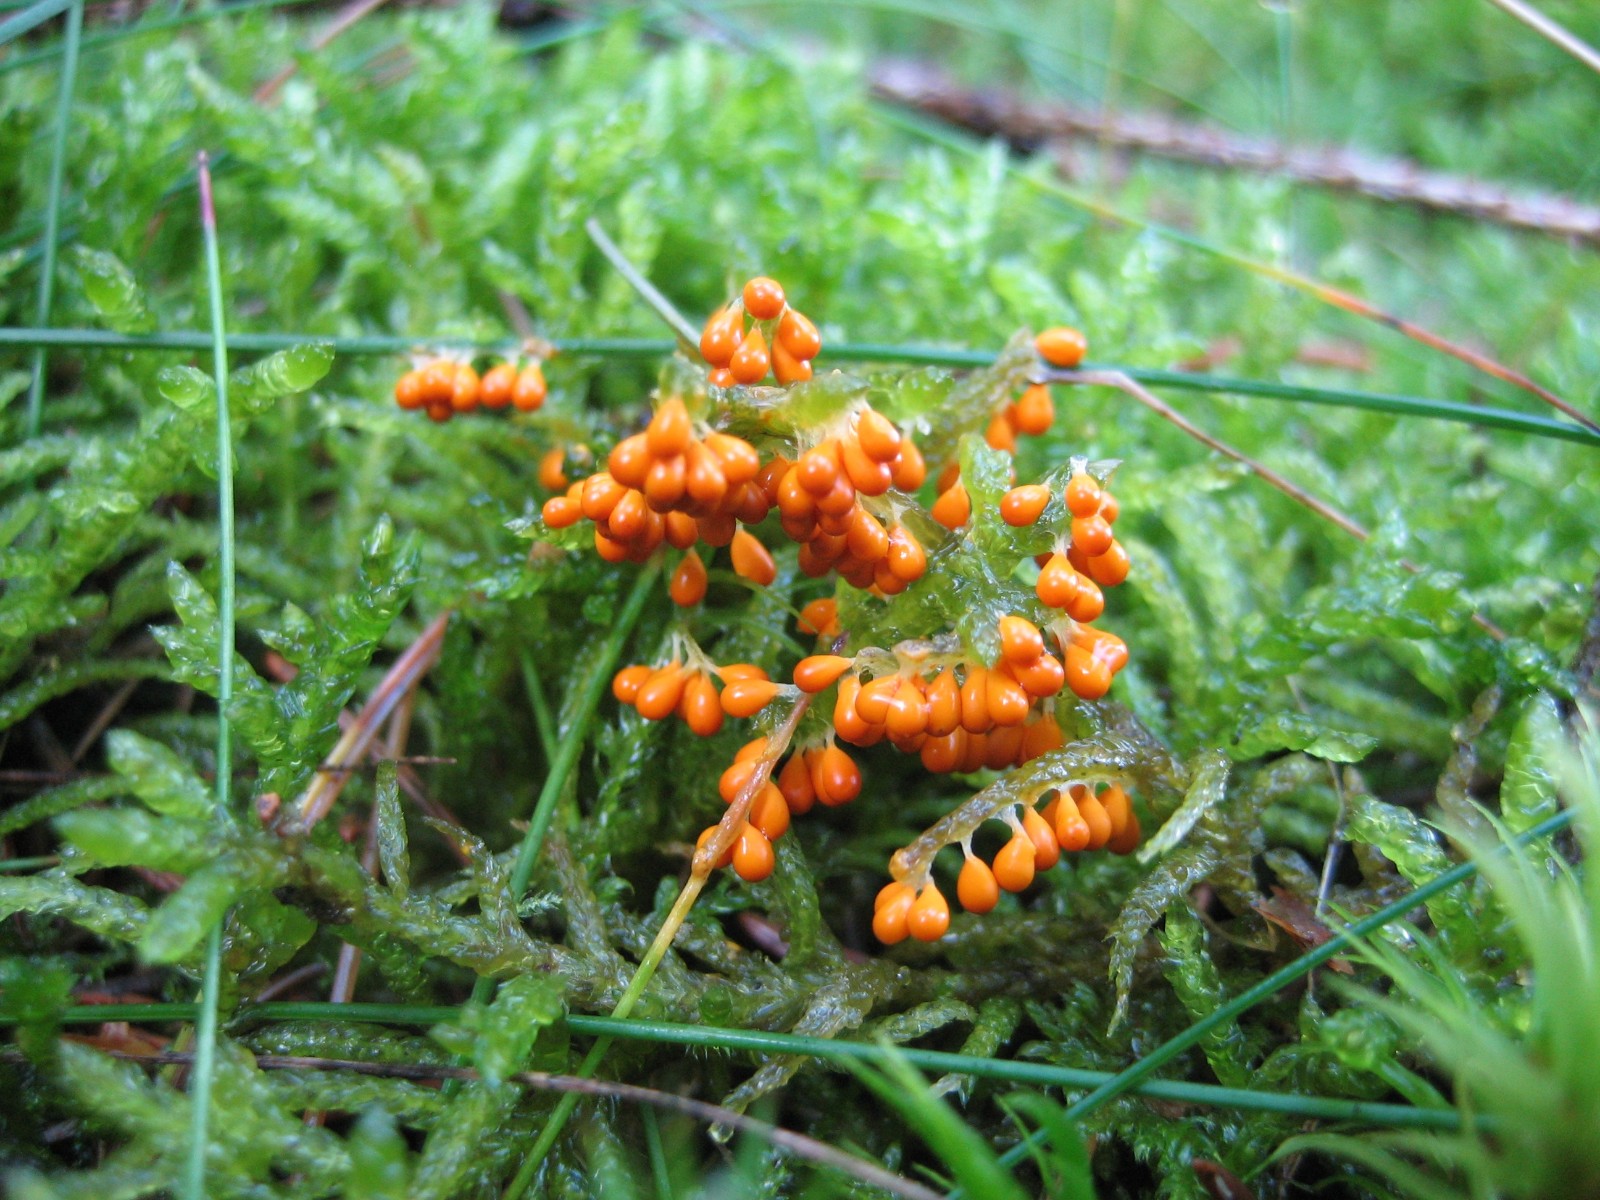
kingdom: Protozoa
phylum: Mycetozoa
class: Myxomycetes
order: Physarales
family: Physaraceae
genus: Leocarpus
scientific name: Leocarpus fragilis
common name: poleret glatfrø
